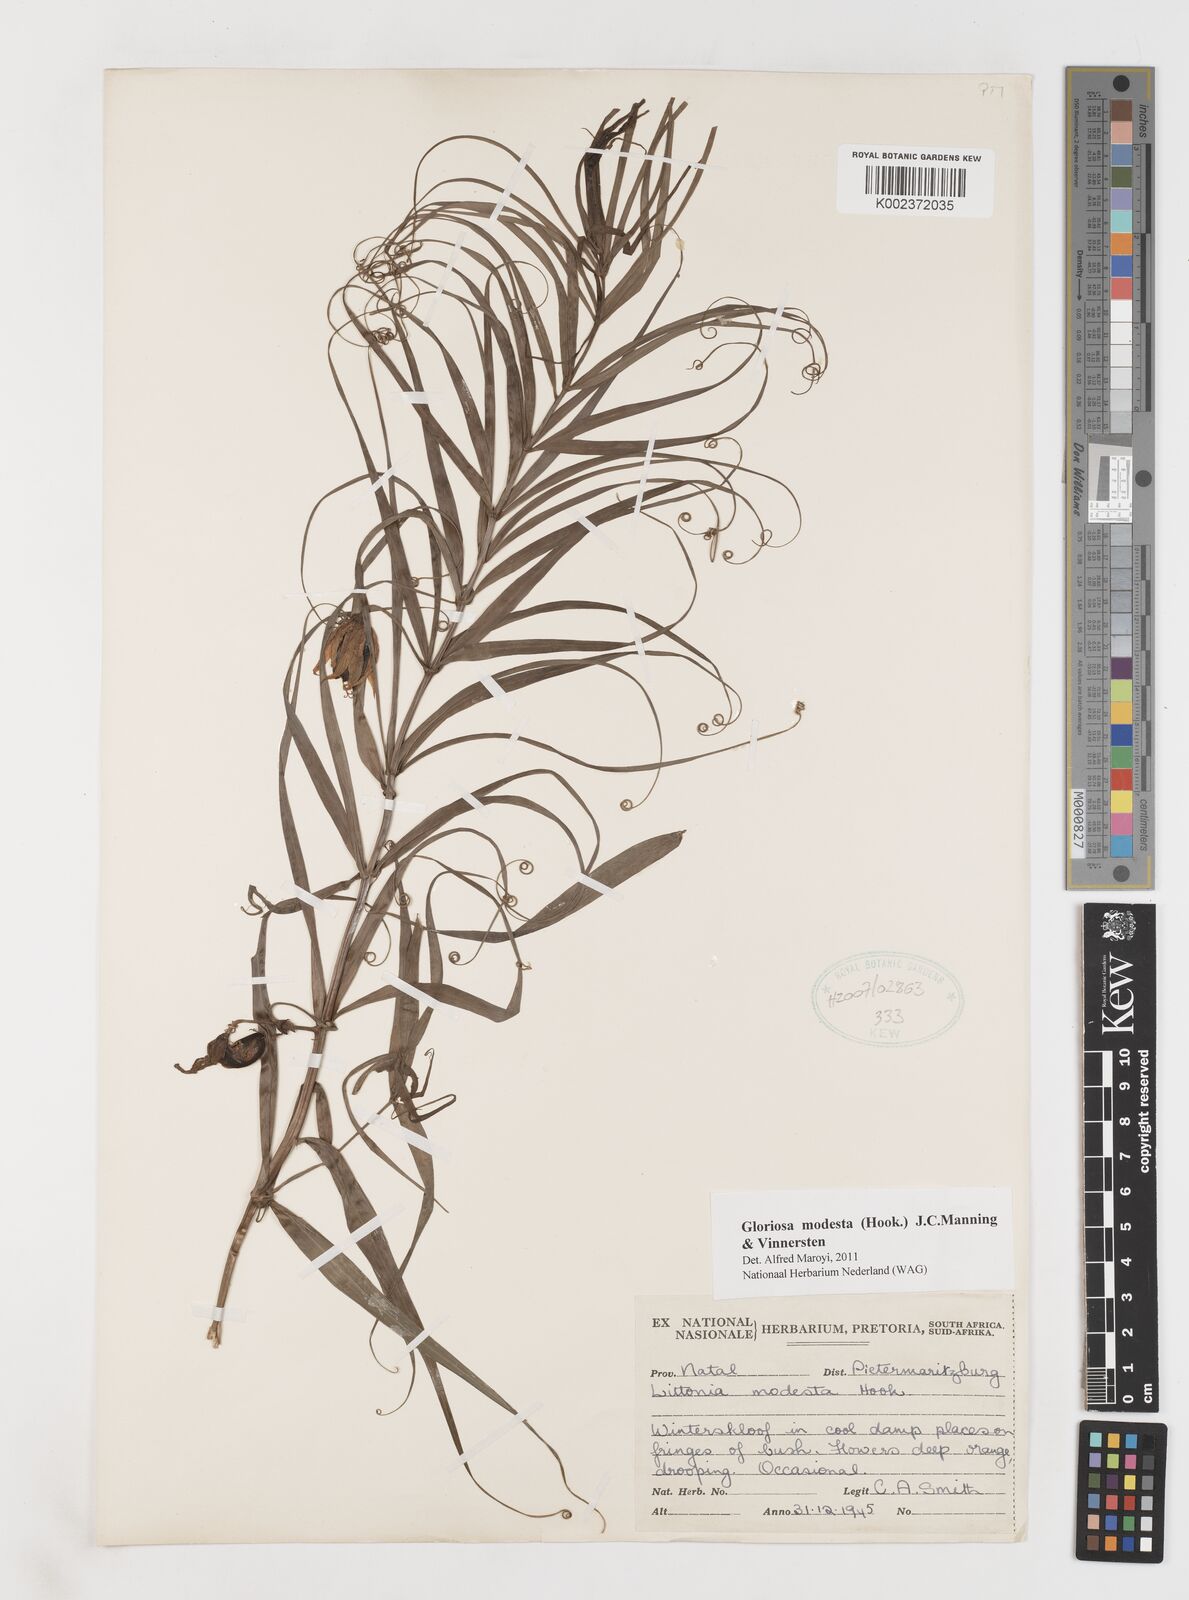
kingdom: Plantae
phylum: Tracheophyta
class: Liliopsida
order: Liliales
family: Colchicaceae
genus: Gloriosa
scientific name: Gloriosa modesta
